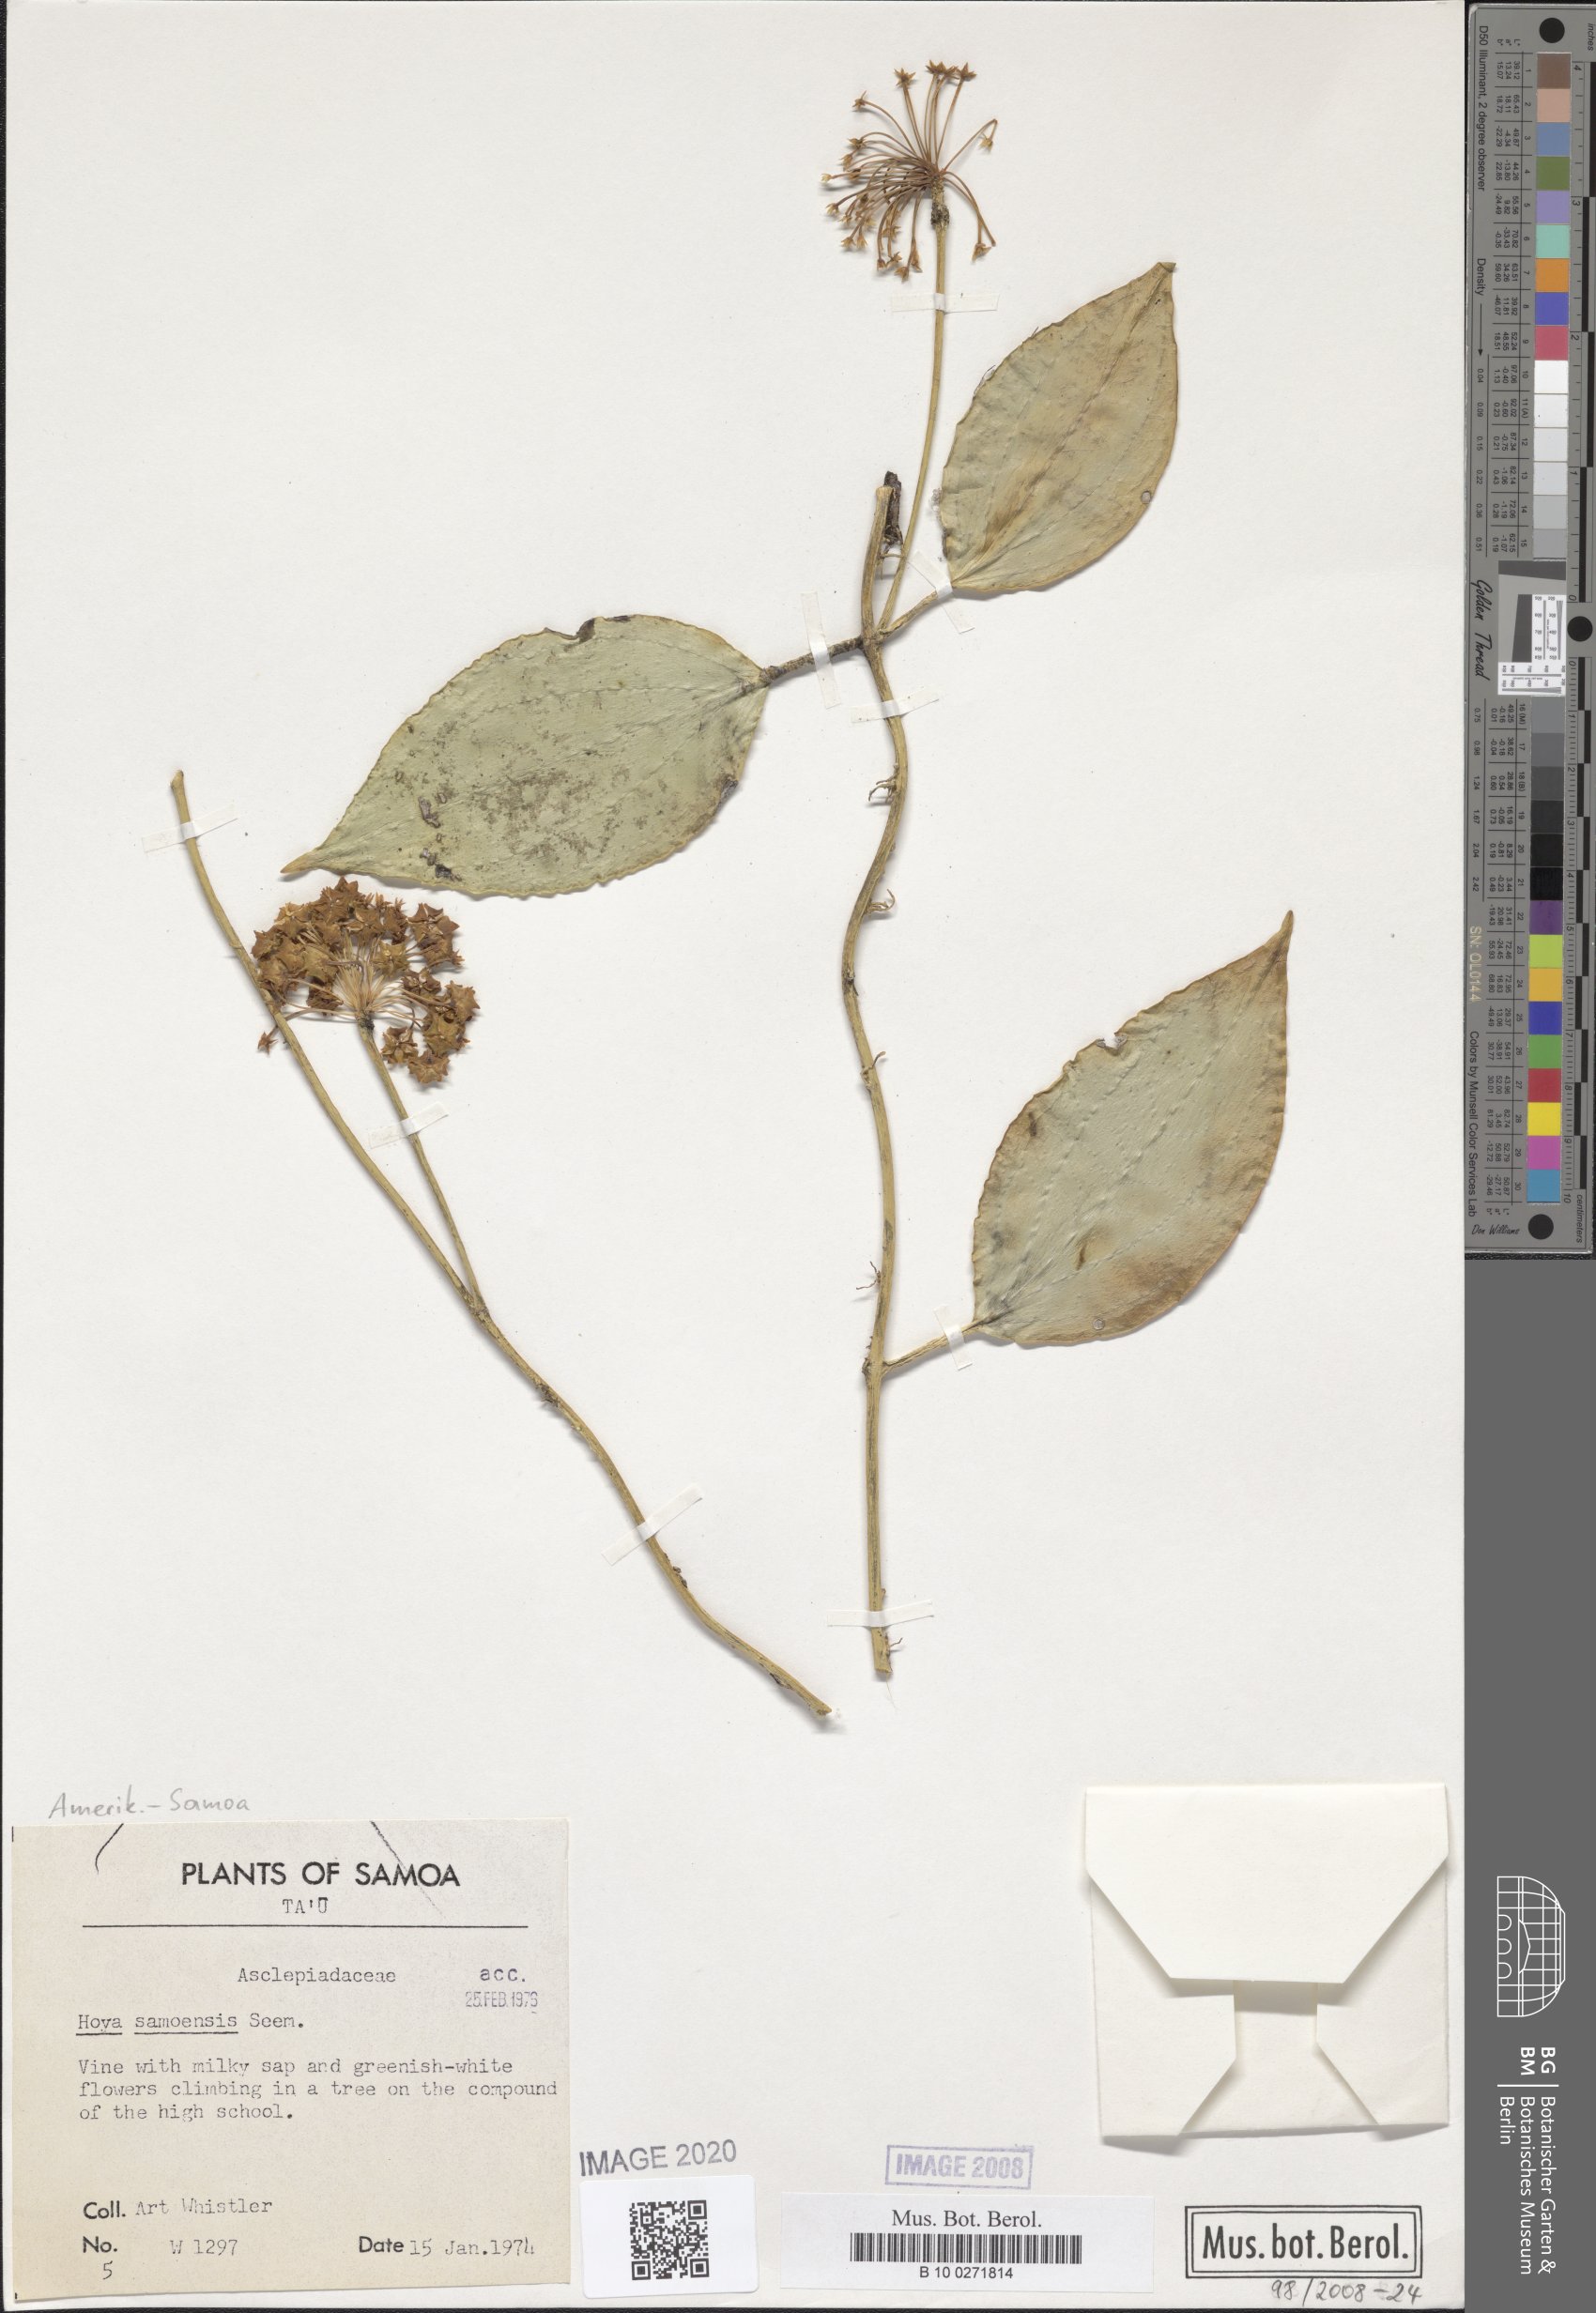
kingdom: Plantae
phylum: Tracheophyta
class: Magnoliopsida
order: Gentianales
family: Apocynaceae
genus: Hoya
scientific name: Hoya nicholsoniae
